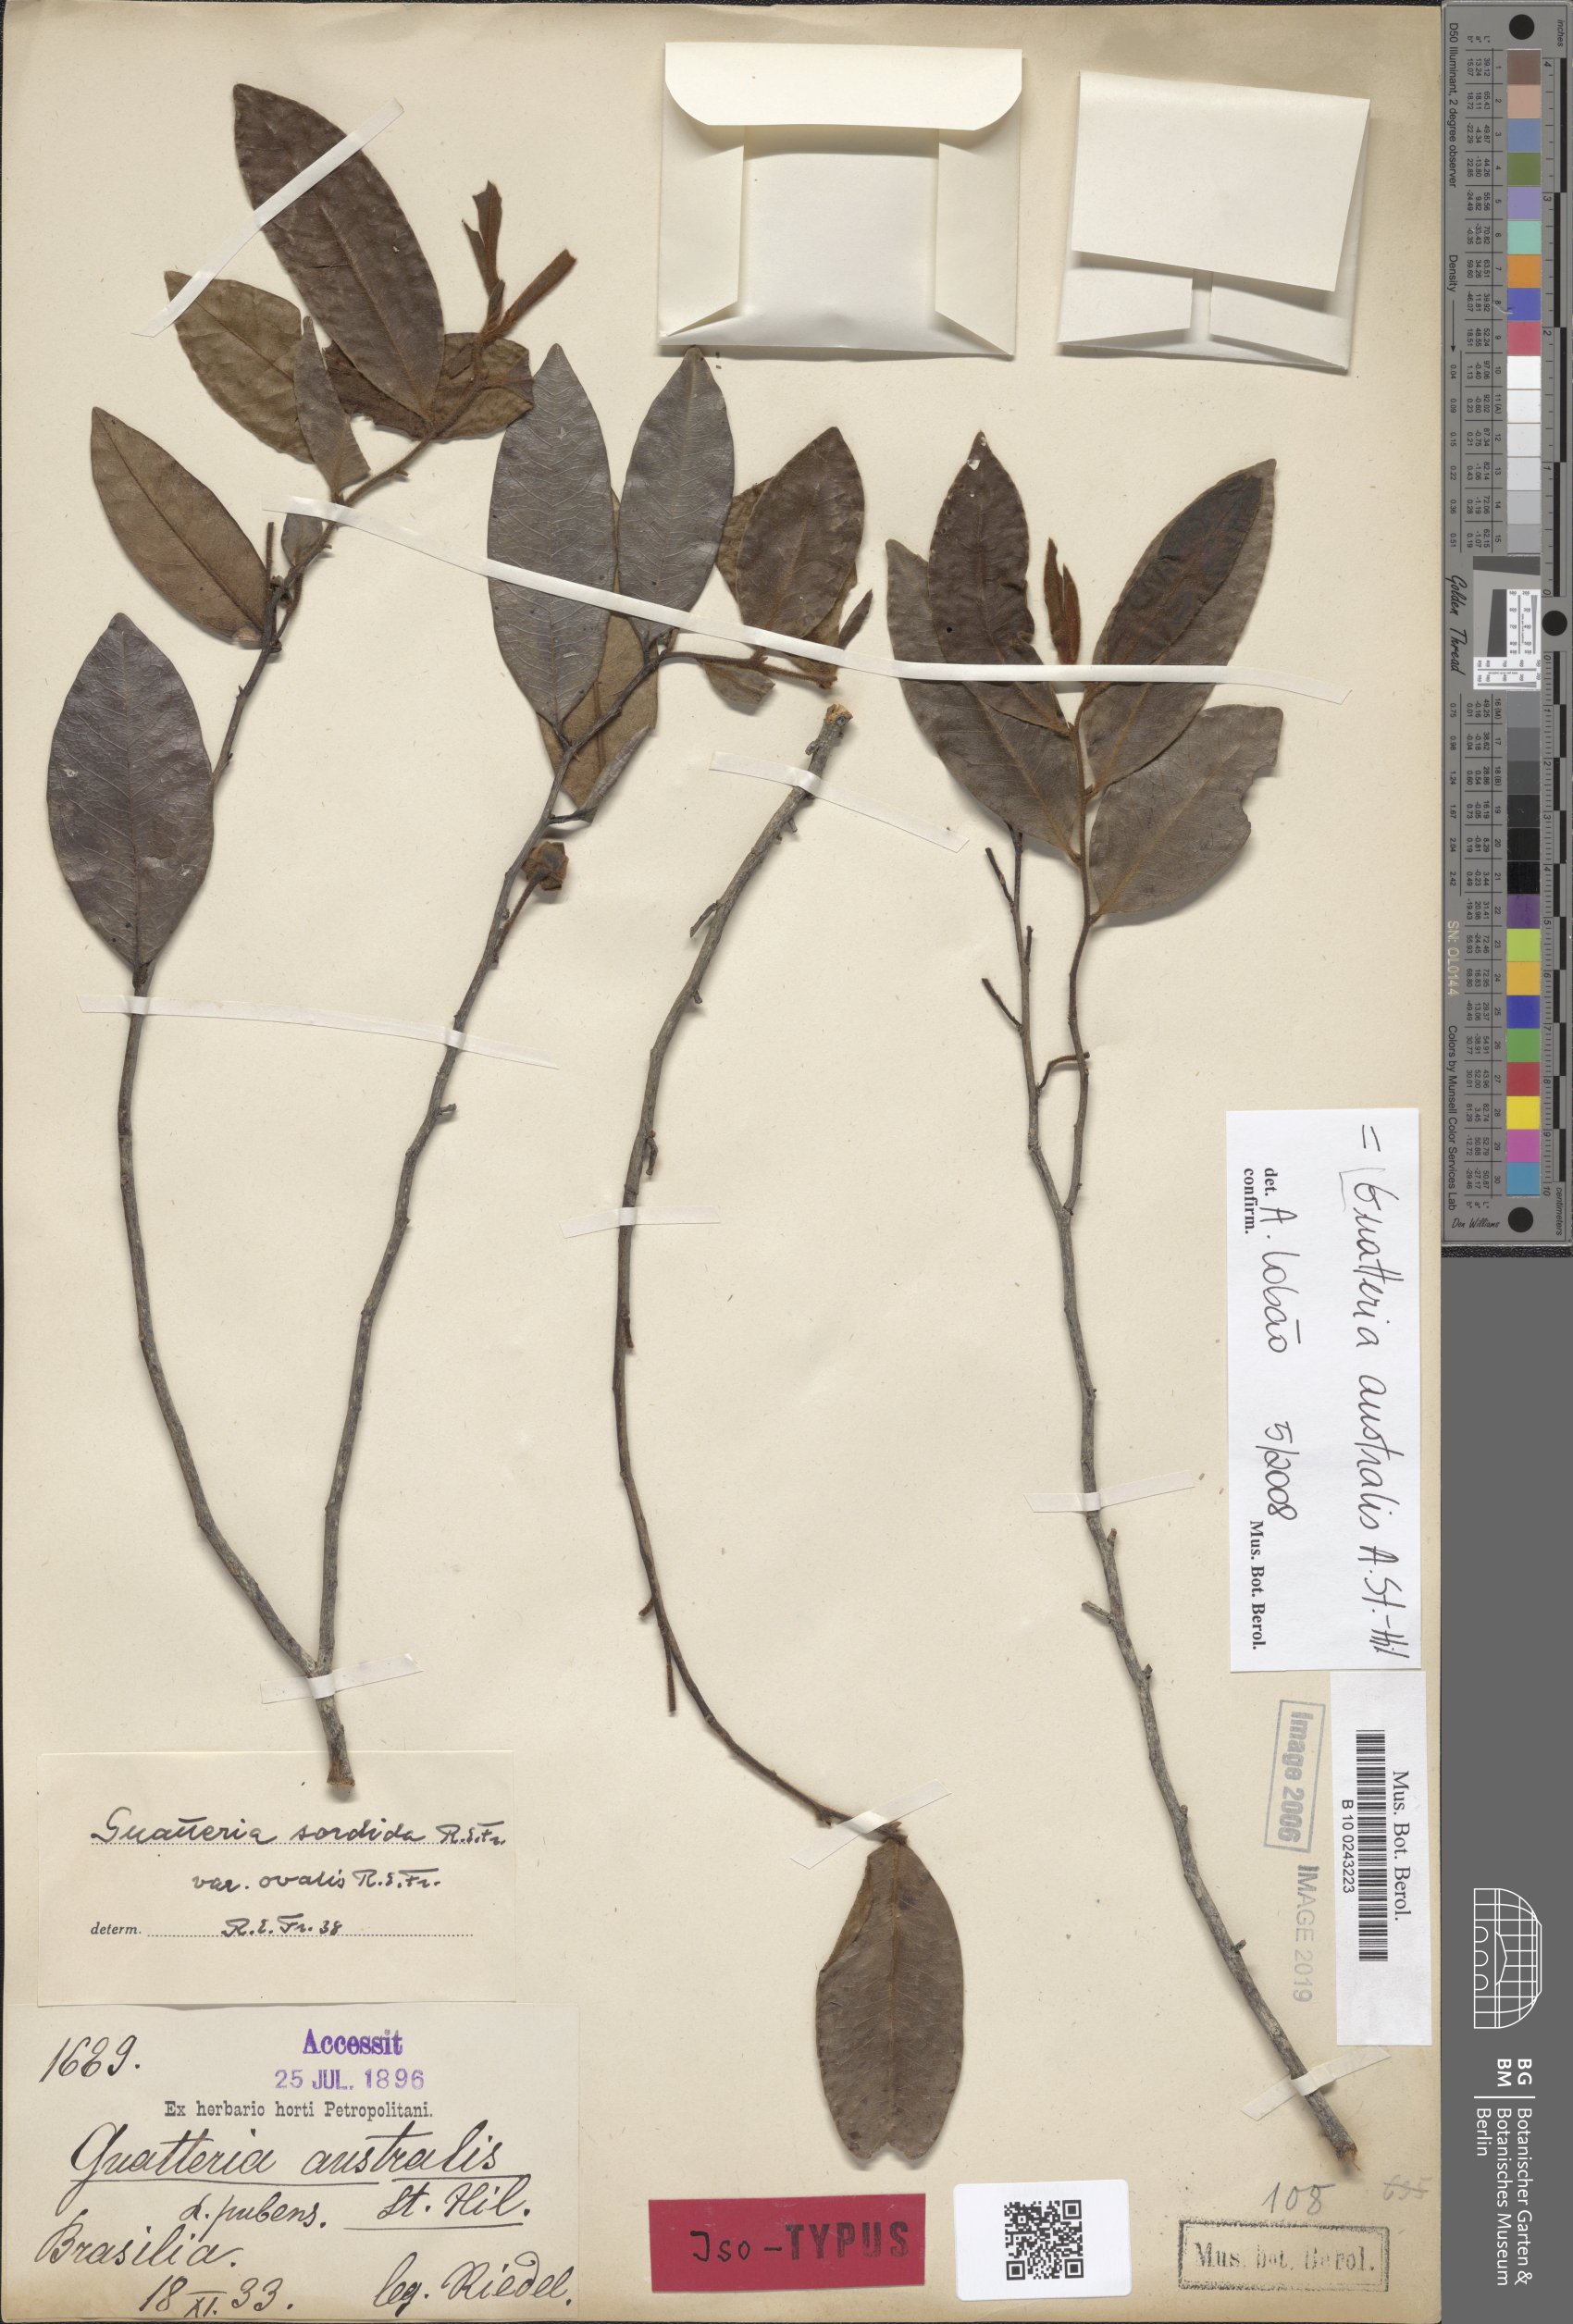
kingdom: Plantae
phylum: Tracheophyta
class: Magnoliopsida
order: Magnoliales
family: Annonaceae
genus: Guatteria
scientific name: Guatteria australis
